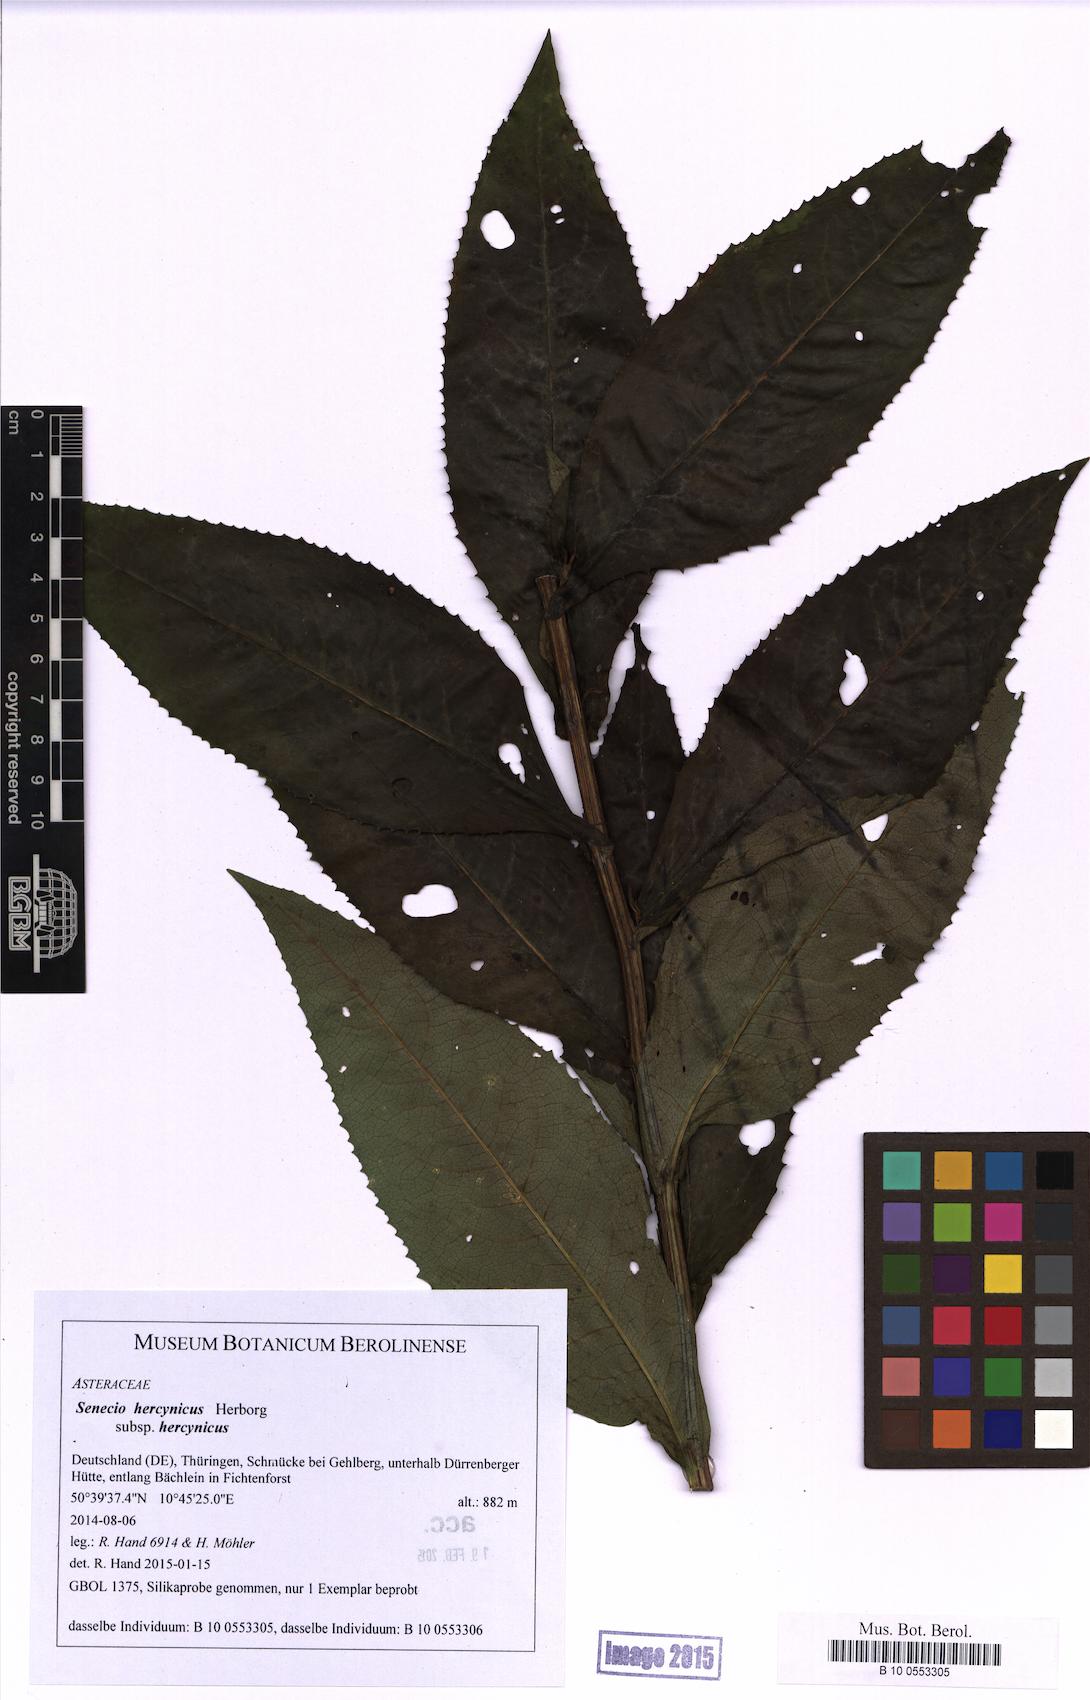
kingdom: Plantae
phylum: Tracheophyta
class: Magnoliopsida
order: Asterales
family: Asteraceae
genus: Senecio
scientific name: Senecio hercynicus
